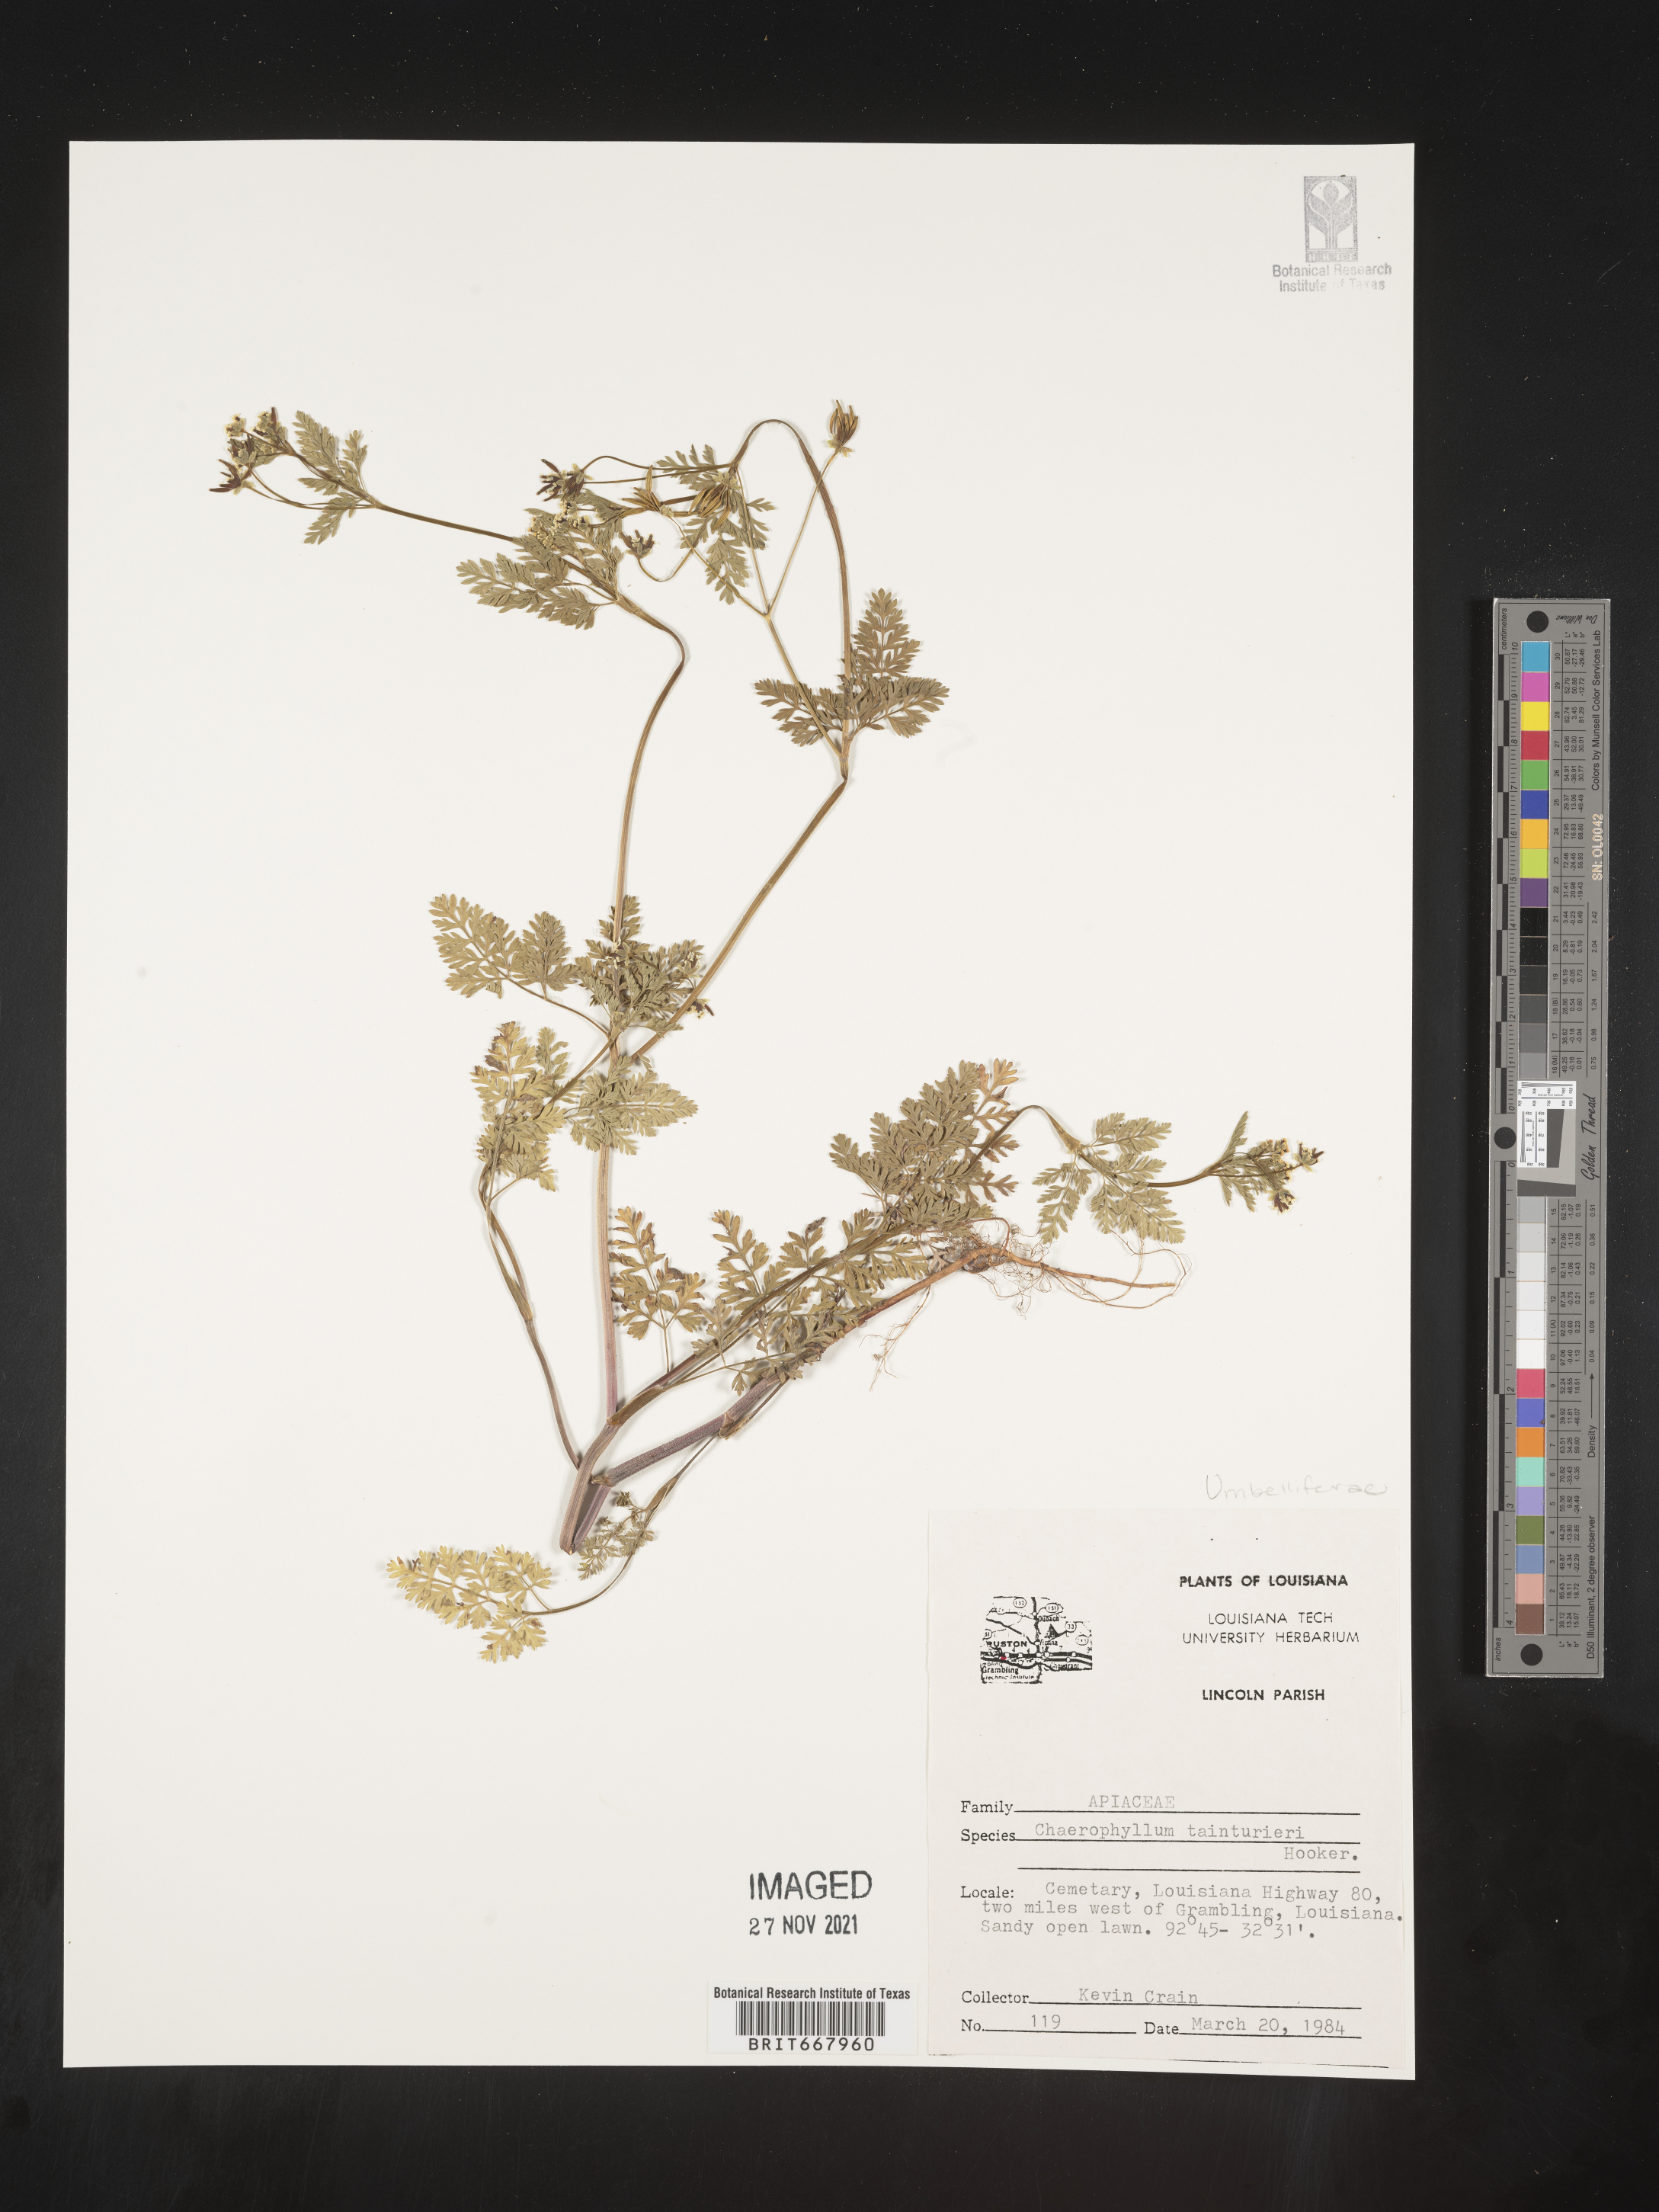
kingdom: Plantae
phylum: Tracheophyta
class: Magnoliopsida
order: Apiales
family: Apiaceae
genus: Chaerophyllum
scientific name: Chaerophyllum tainturieri
